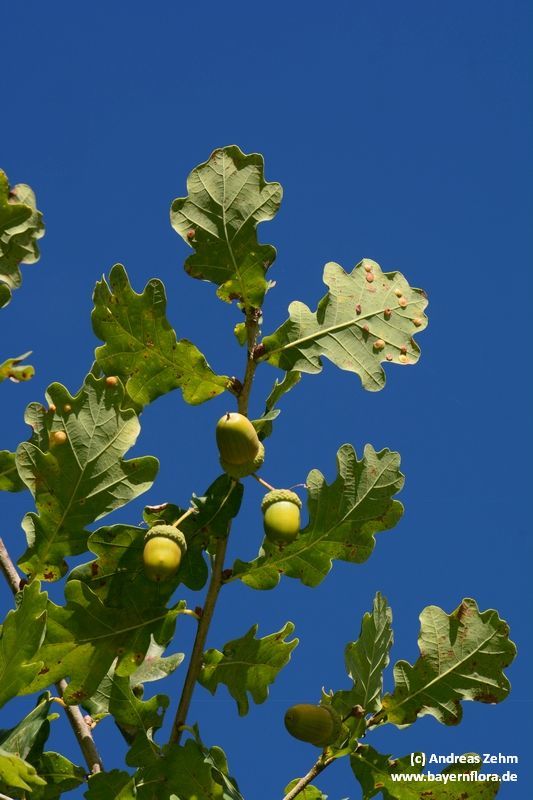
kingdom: Plantae
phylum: Tracheophyta
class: Magnoliopsida
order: Fagales
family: Fagaceae
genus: Quercus
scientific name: Quercus robur
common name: Pedunculate oak
